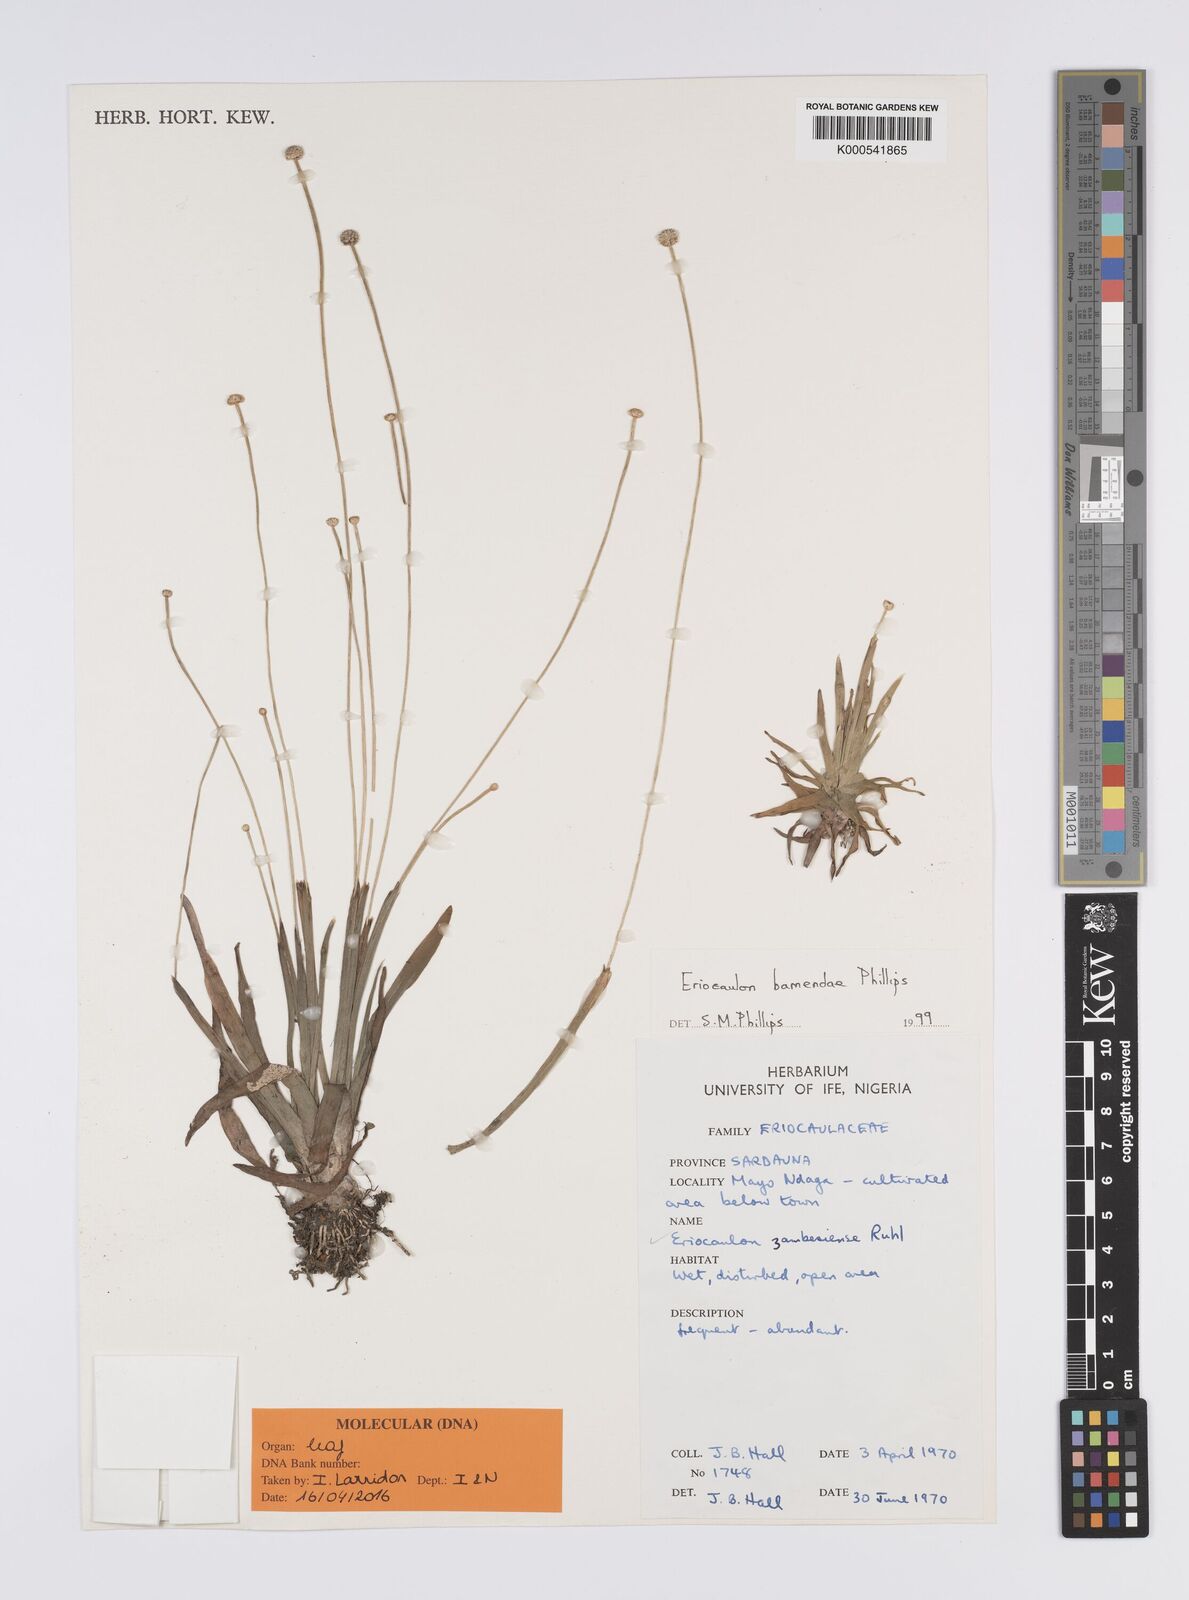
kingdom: Plantae
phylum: Tracheophyta
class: Liliopsida
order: Poales
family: Eriocaulaceae
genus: Eriocaulon
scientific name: Eriocaulon bamendae
